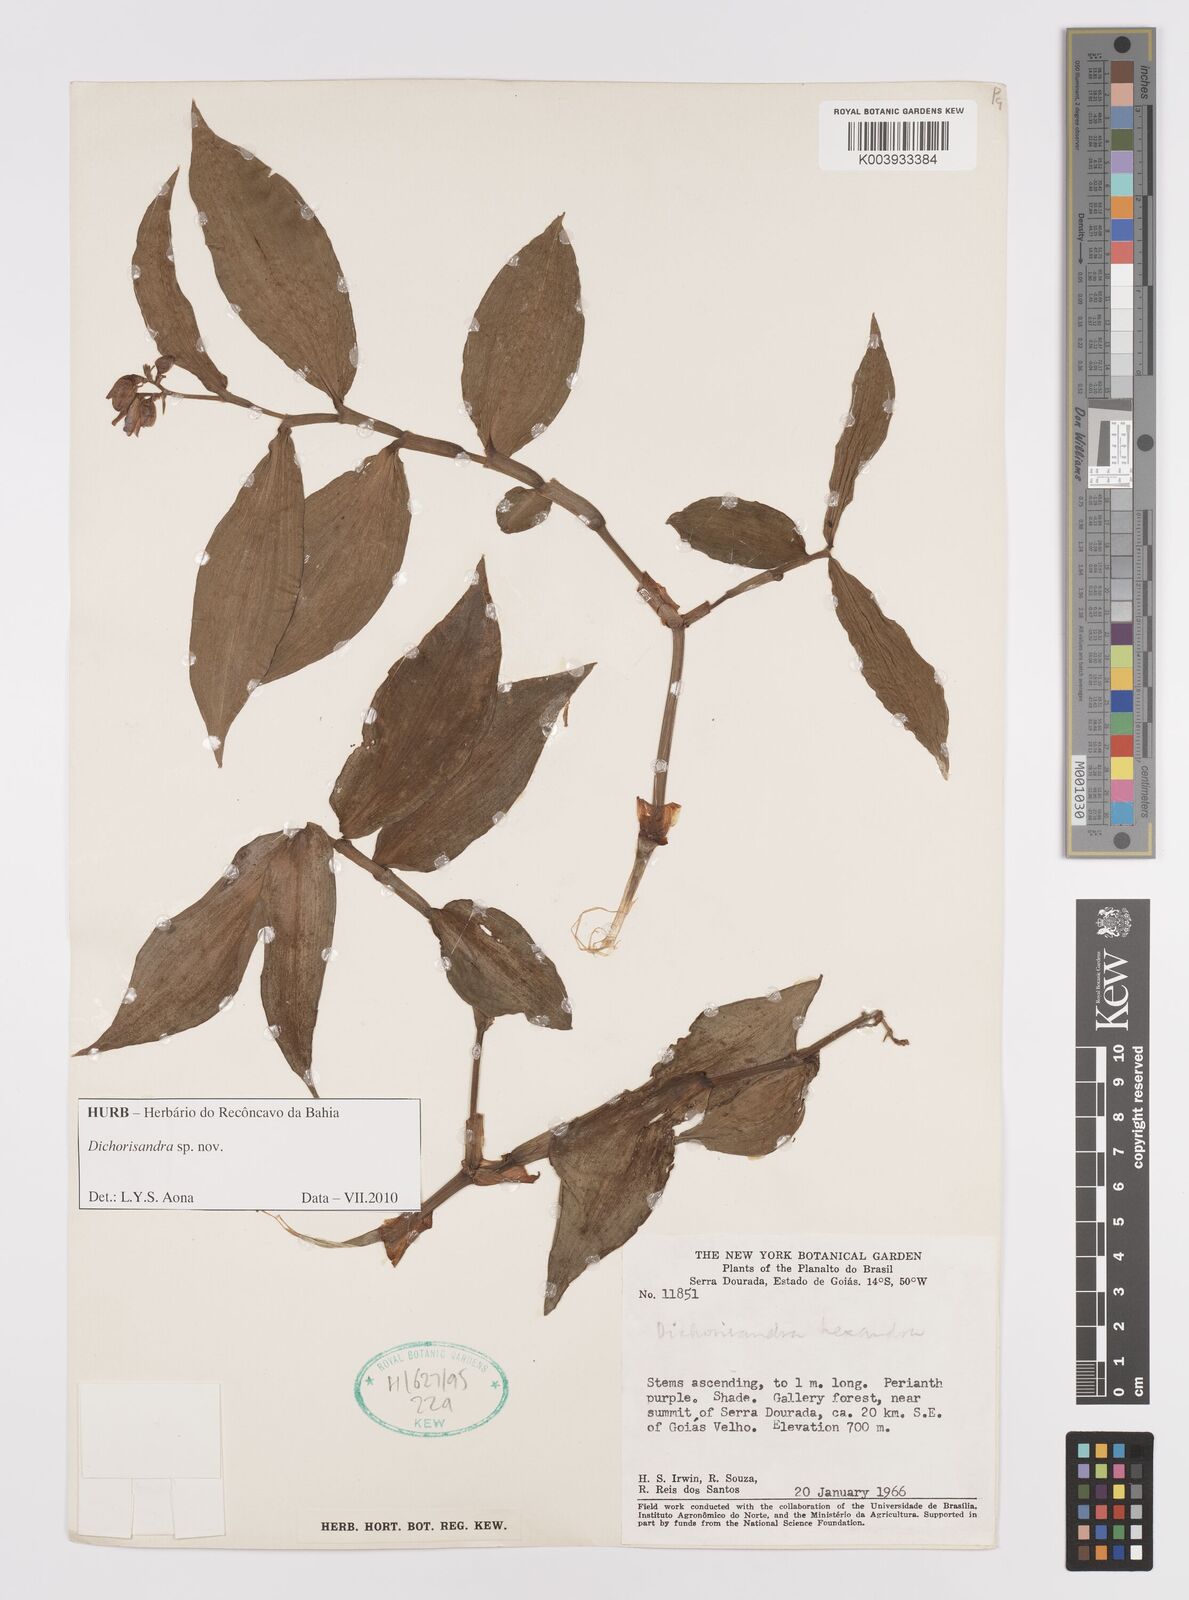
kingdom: Plantae
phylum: Tracheophyta
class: Liliopsida
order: Commelinales
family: Commelinaceae
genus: Dichorisandra
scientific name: Dichorisandra
